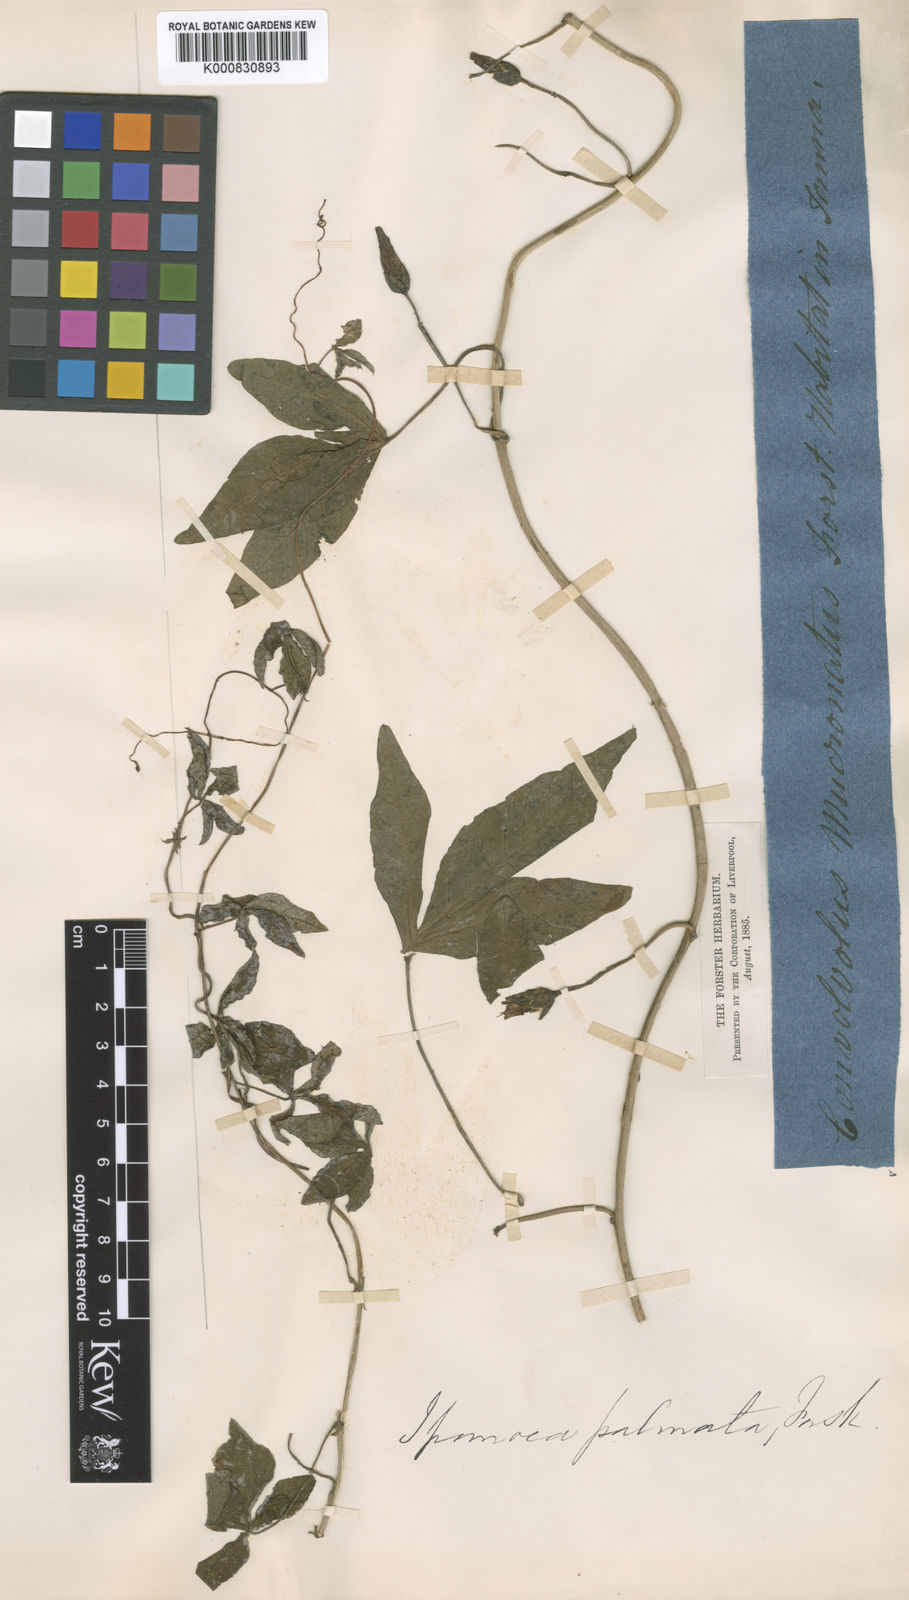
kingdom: Plantae
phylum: Tracheophyta
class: Magnoliopsida
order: Solanales
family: Convolvulaceae
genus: Ipomoea
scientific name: Ipomoea cairica
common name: Mile a minute vine
